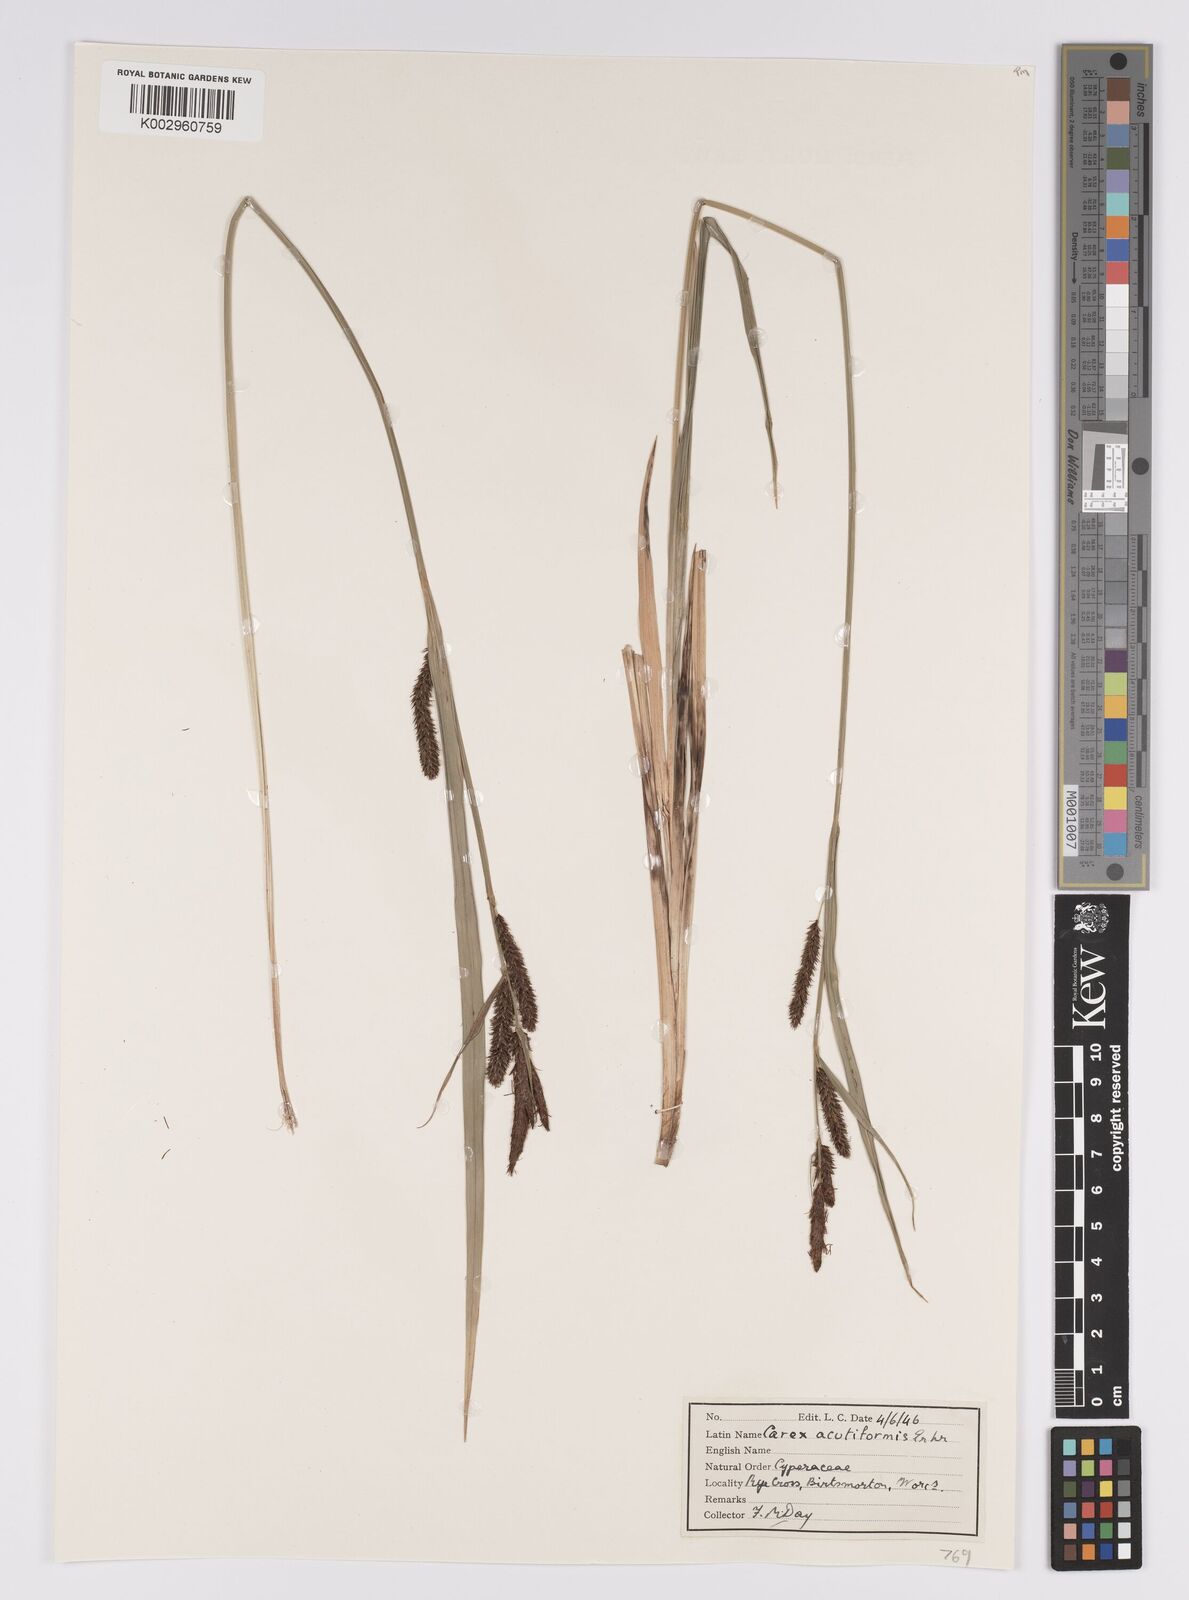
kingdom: Plantae
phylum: Tracheophyta
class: Liliopsida
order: Poales
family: Cyperaceae
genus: Carex
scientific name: Carex acutiformis
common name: Lesser pond-sedge
